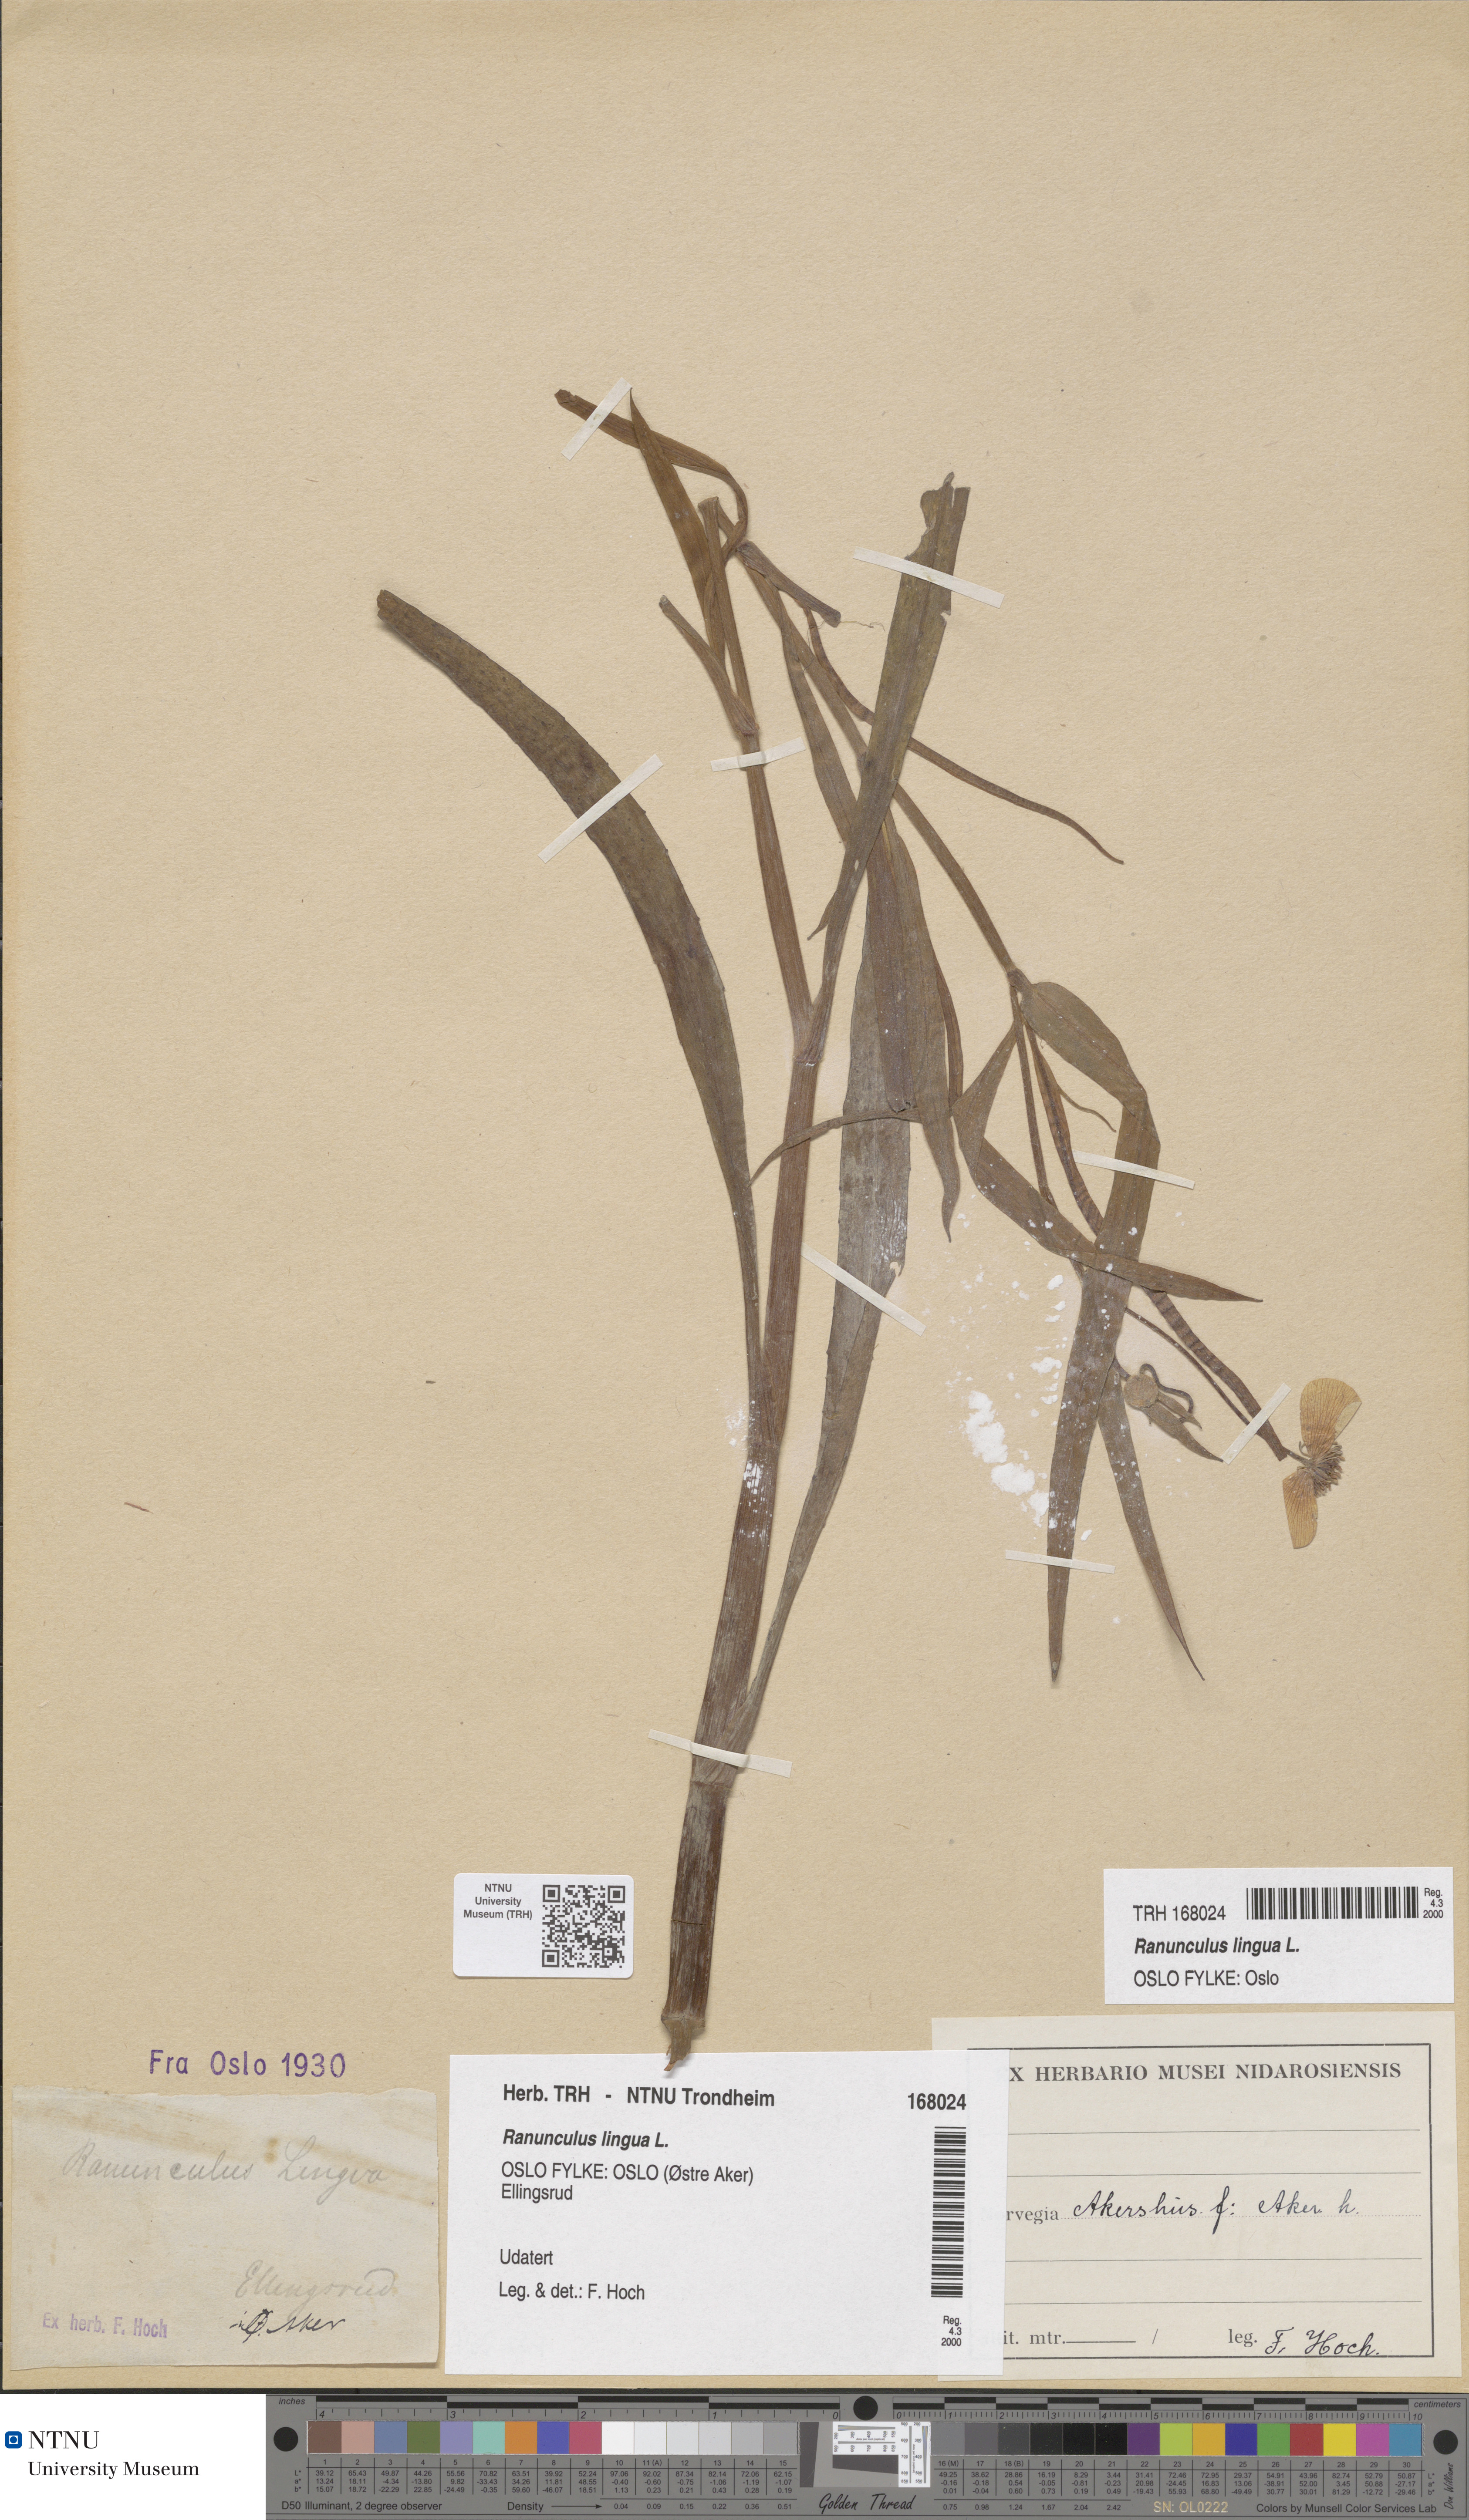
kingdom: Plantae
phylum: Tracheophyta
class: Magnoliopsida
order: Ranunculales
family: Ranunculaceae
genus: Ranunculus
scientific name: Ranunculus lingua
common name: Greater spearwort
